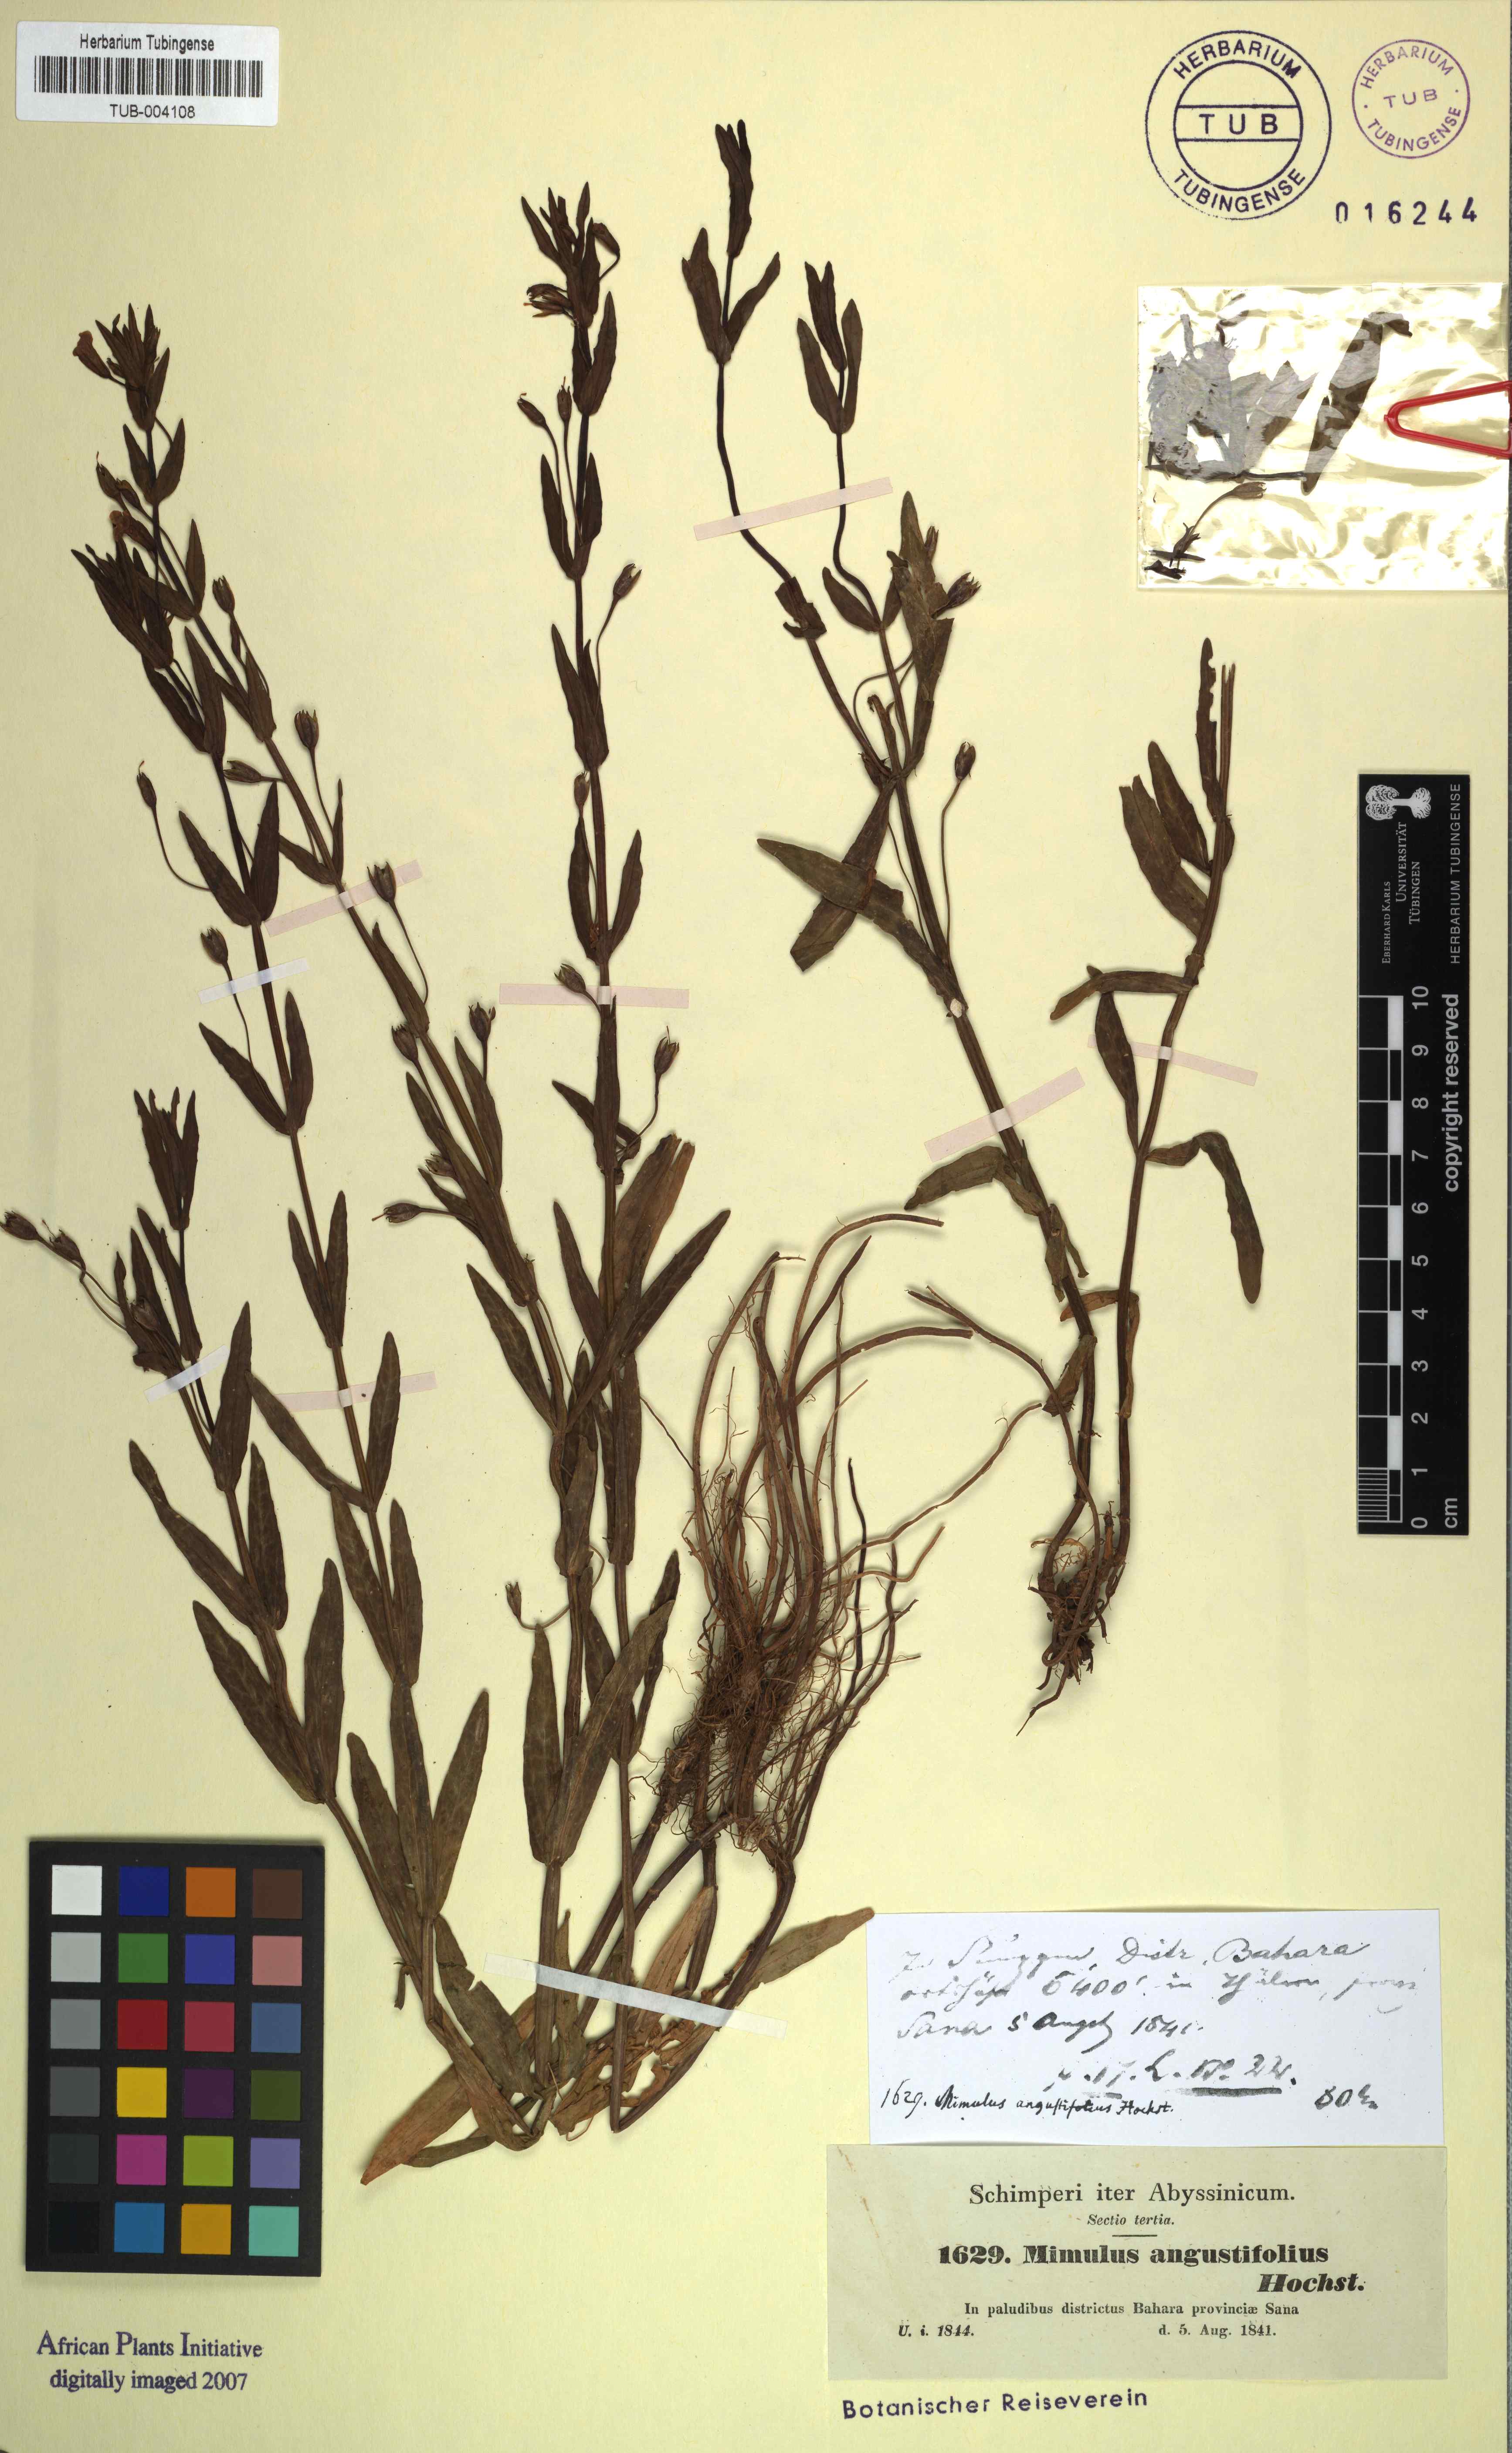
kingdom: Plantae
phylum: Tracheophyta
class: Magnoliopsida
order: Lamiales
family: Phrymaceae
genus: Mimulus
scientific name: Mimulus strictus
